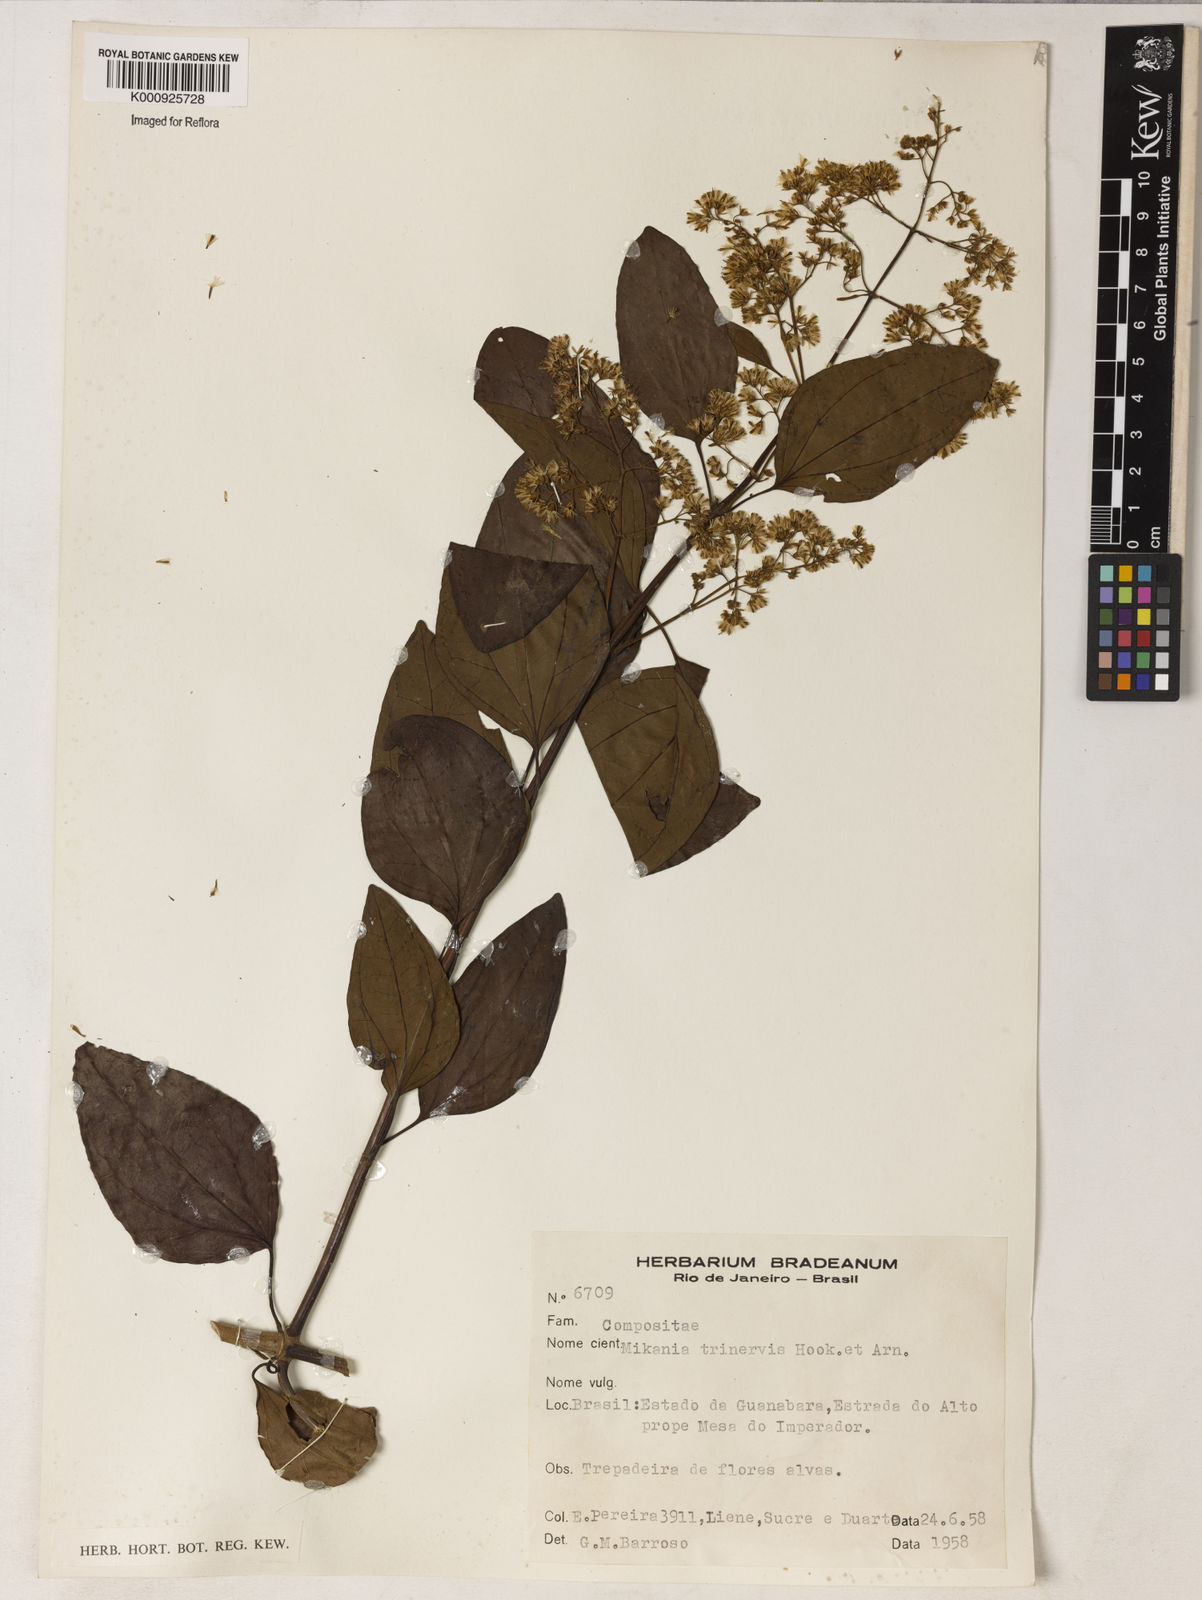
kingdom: Plantae
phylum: Tracheophyta
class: Magnoliopsida
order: Asterales
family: Asteraceae
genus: Mikania
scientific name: Mikania trinervis
